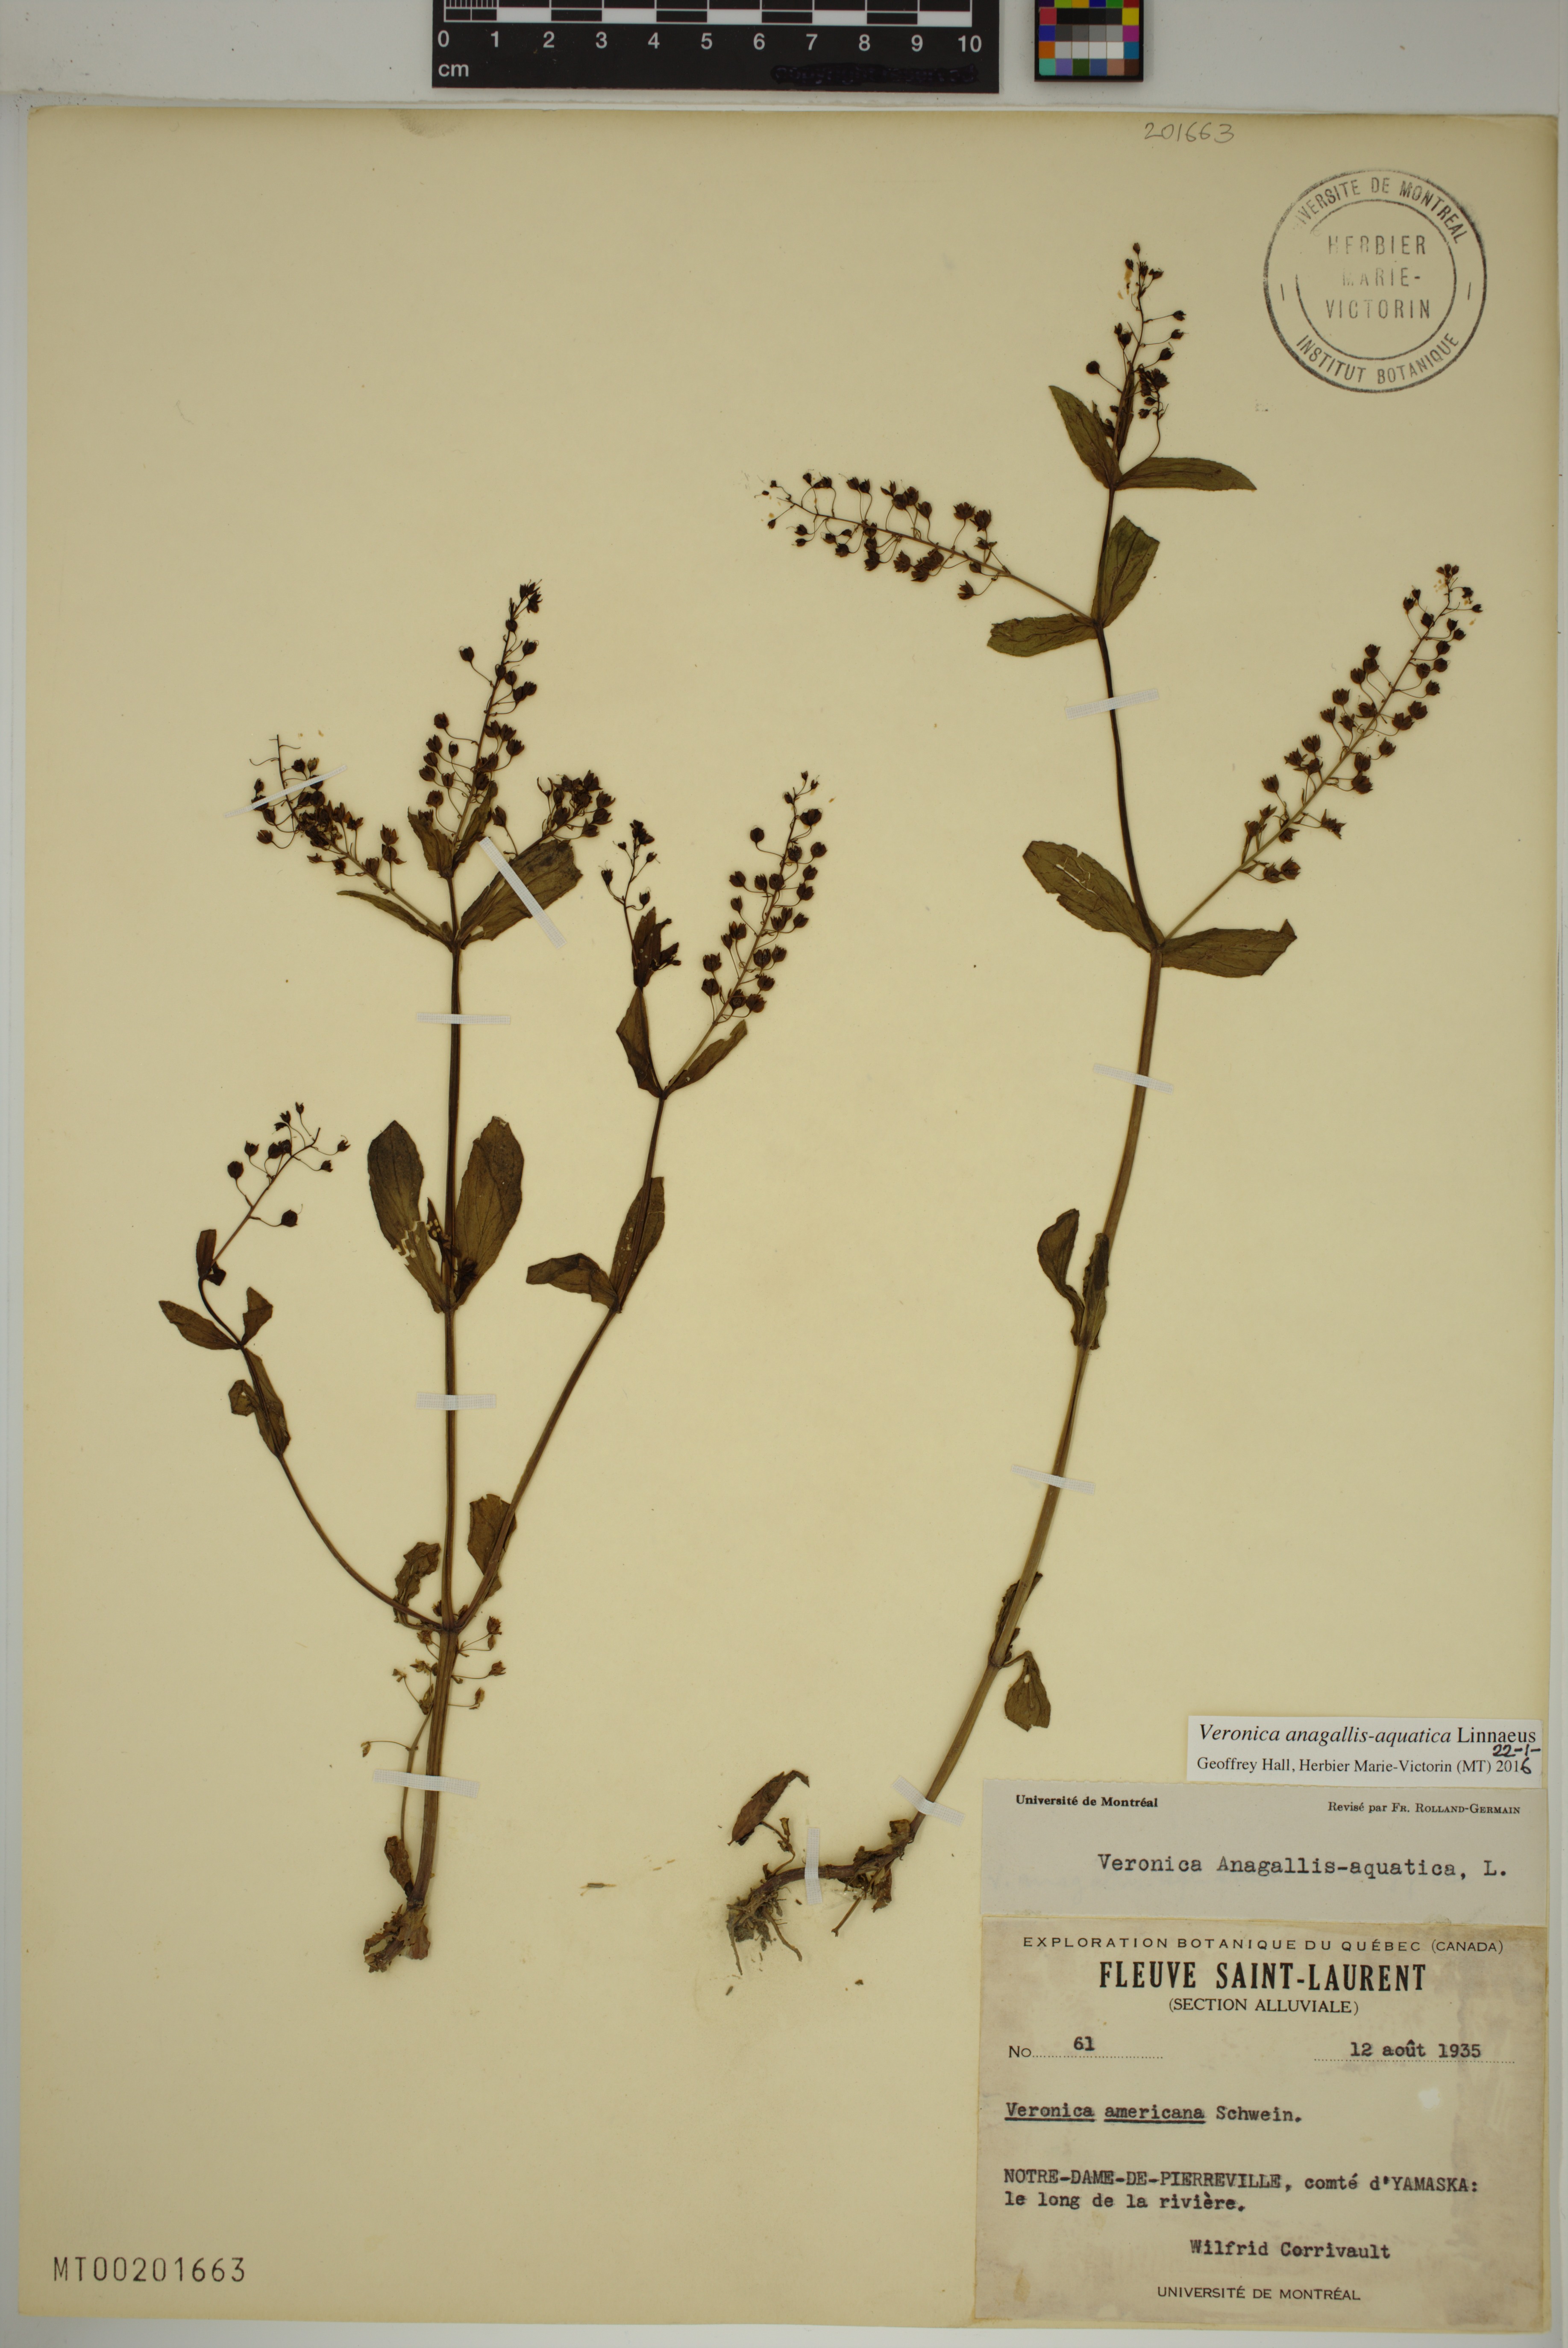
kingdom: Plantae
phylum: Tracheophyta
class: Magnoliopsida
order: Lamiales
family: Plantaginaceae
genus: Veronica
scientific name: Veronica anagallis-aquatica
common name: Water speedwell
